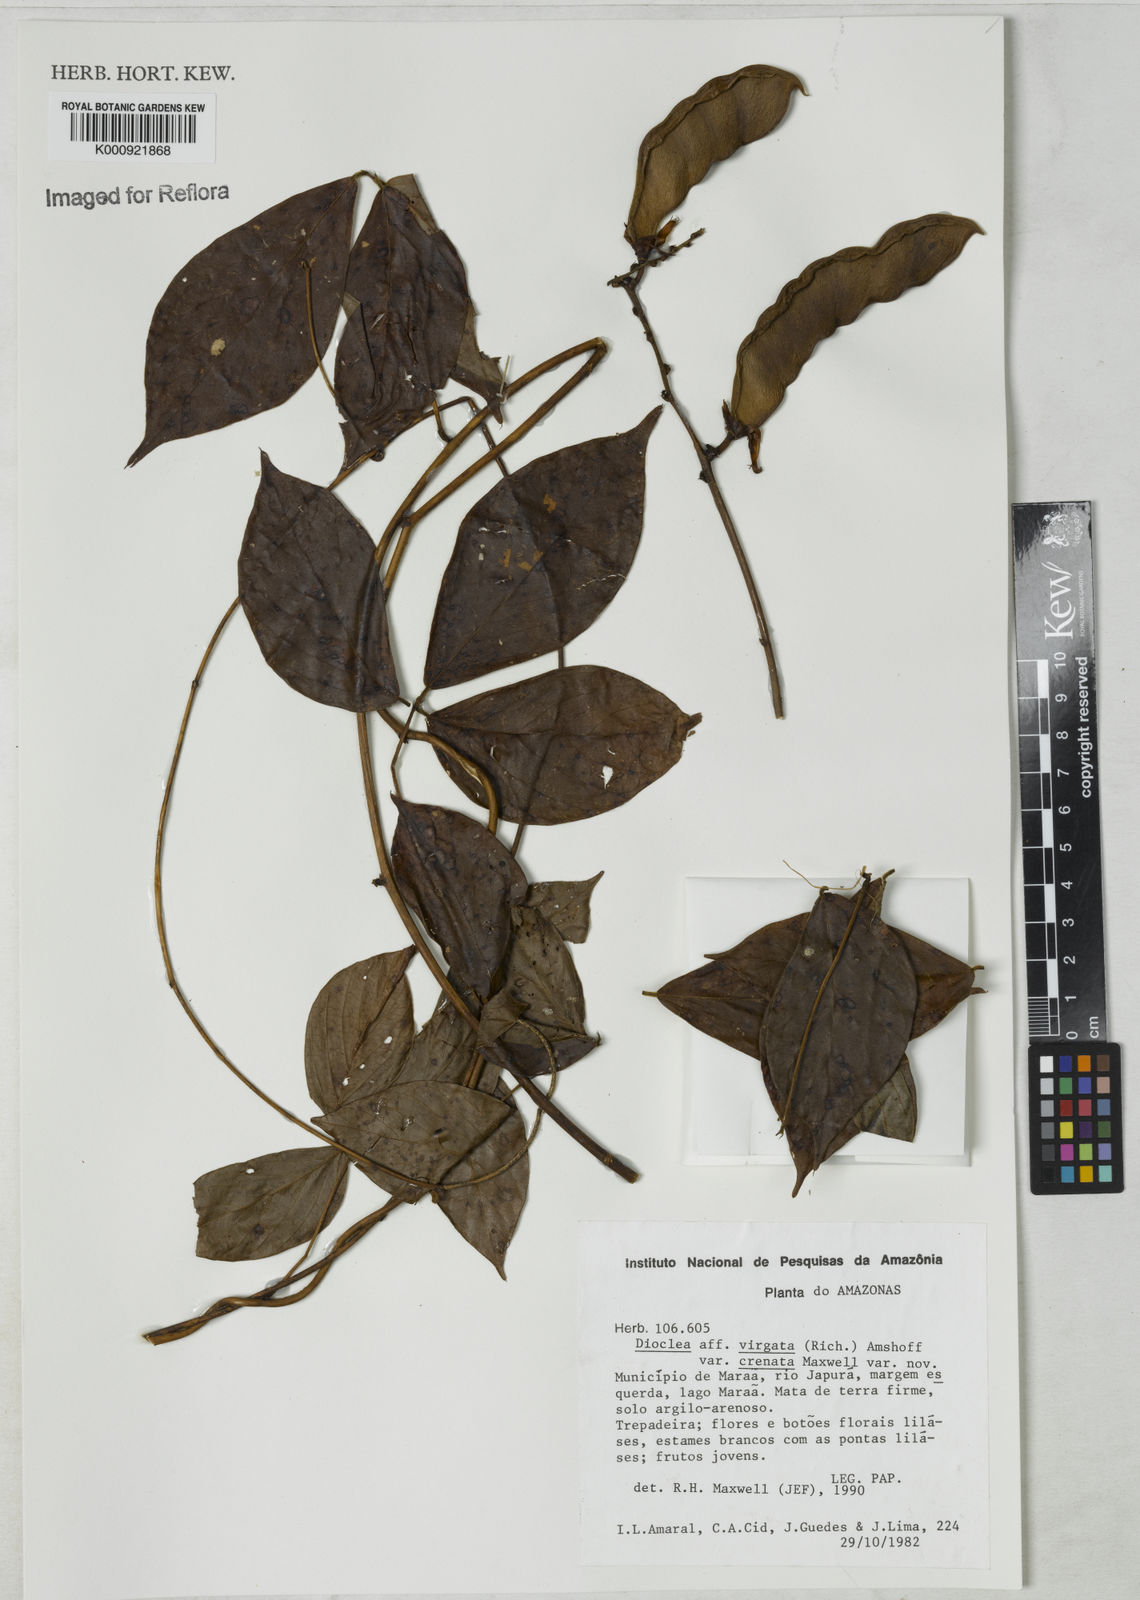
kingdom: Plantae
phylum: Tracheophyta
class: Magnoliopsida
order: Fabales
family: Fabaceae
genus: Dioclea
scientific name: Dioclea virgata
